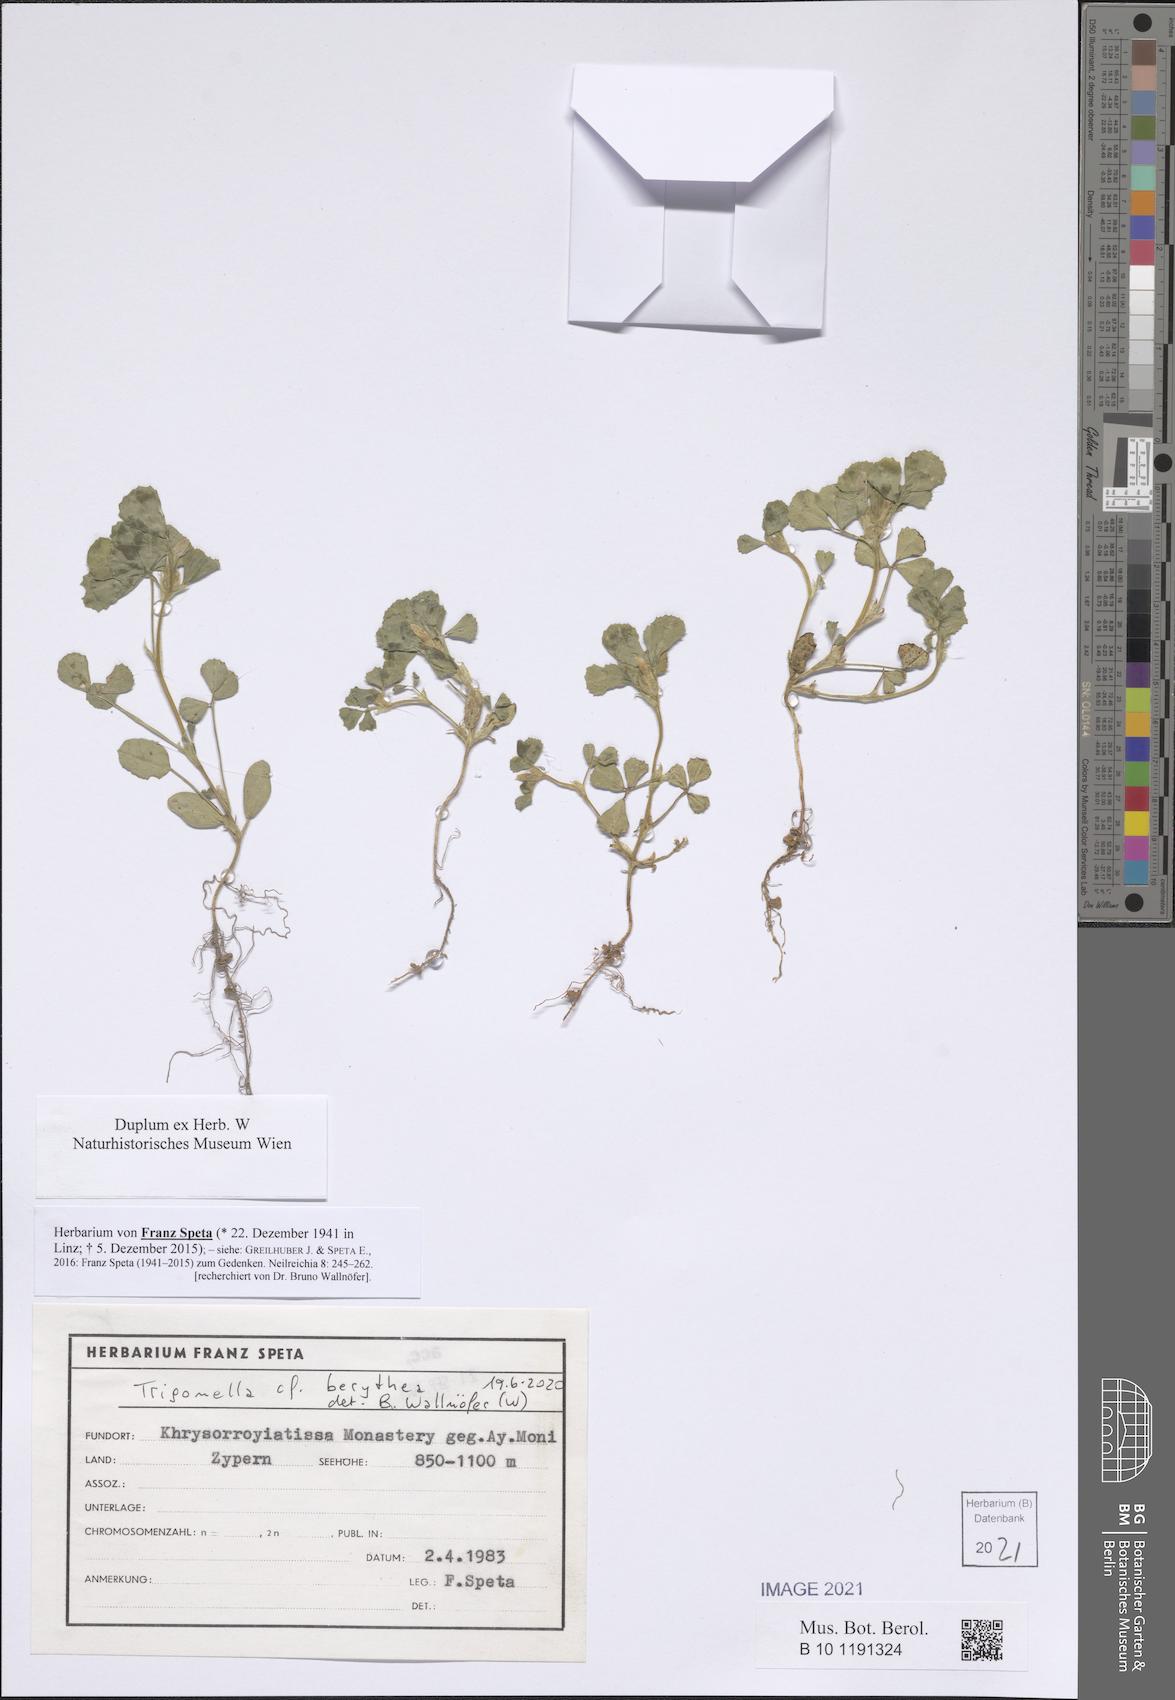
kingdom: Plantae
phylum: Tracheophyta
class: Magnoliopsida
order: Fabales
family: Fabaceae
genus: Trigonella
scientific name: Trigonella berythea
